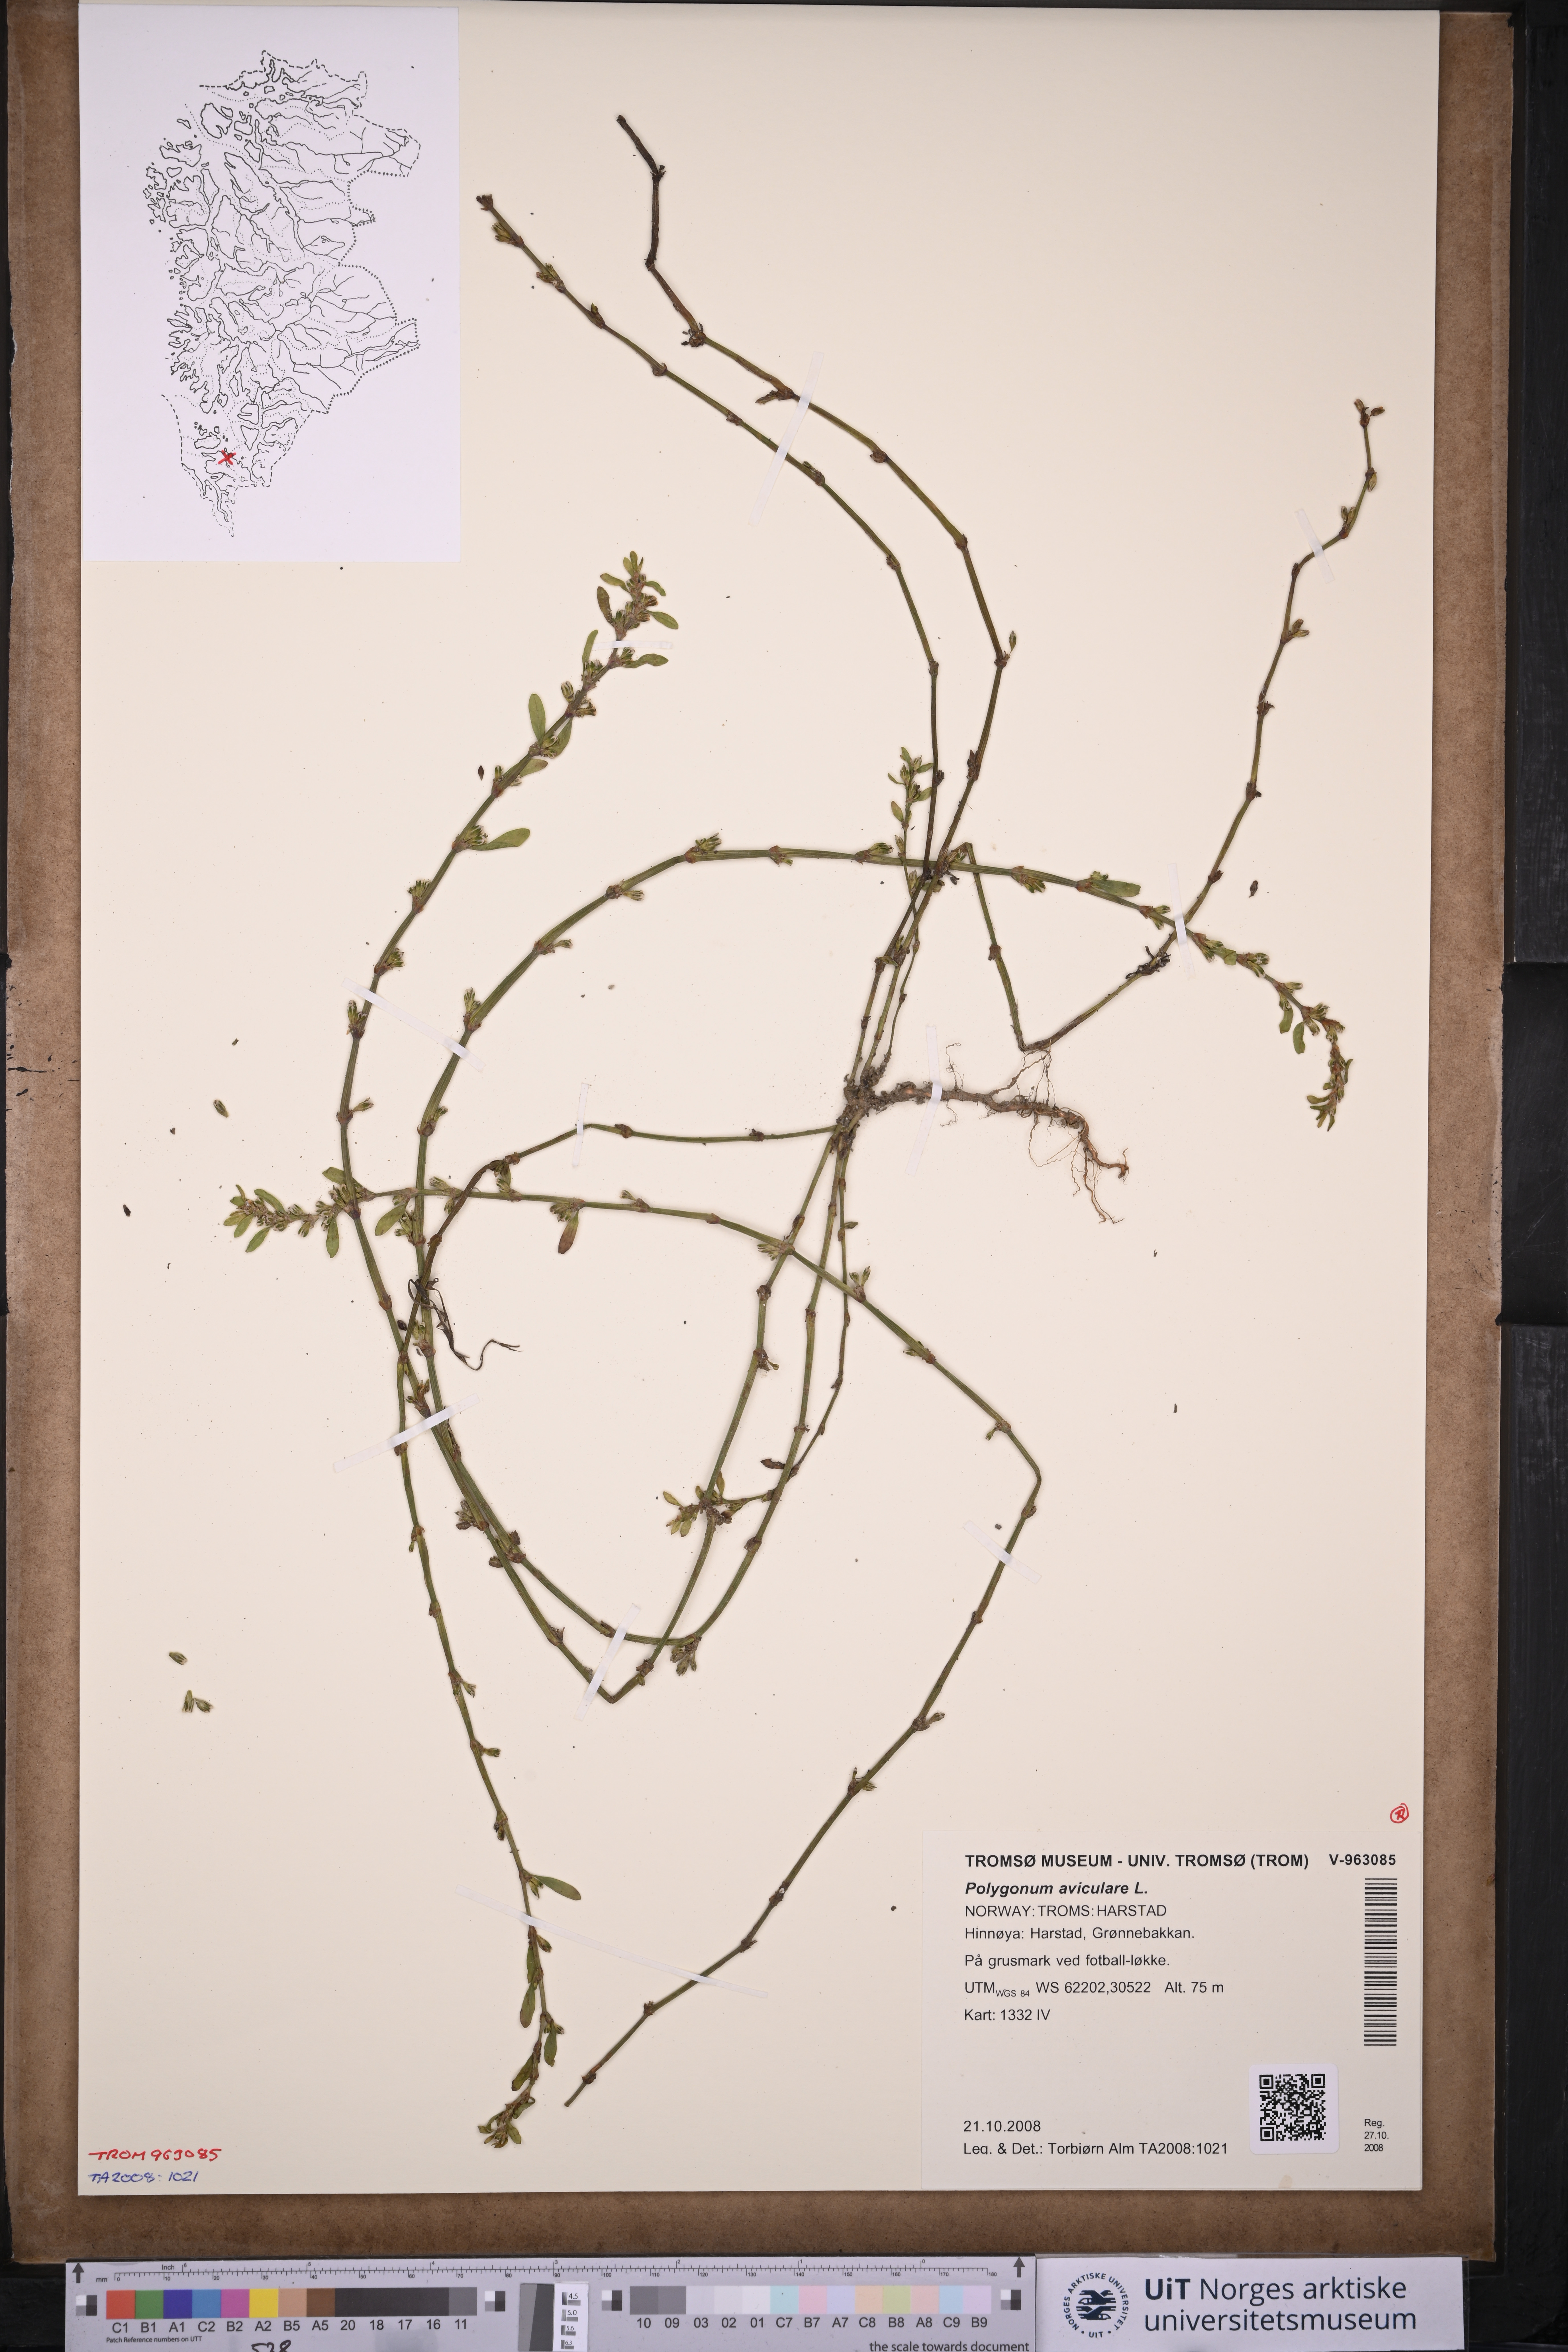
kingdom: Plantae
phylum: Tracheophyta
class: Magnoliopsida
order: Caryophyllales
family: Polygonaceae
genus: Polygonum
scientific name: Polygonum aviculare
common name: Prostrate knotweed
